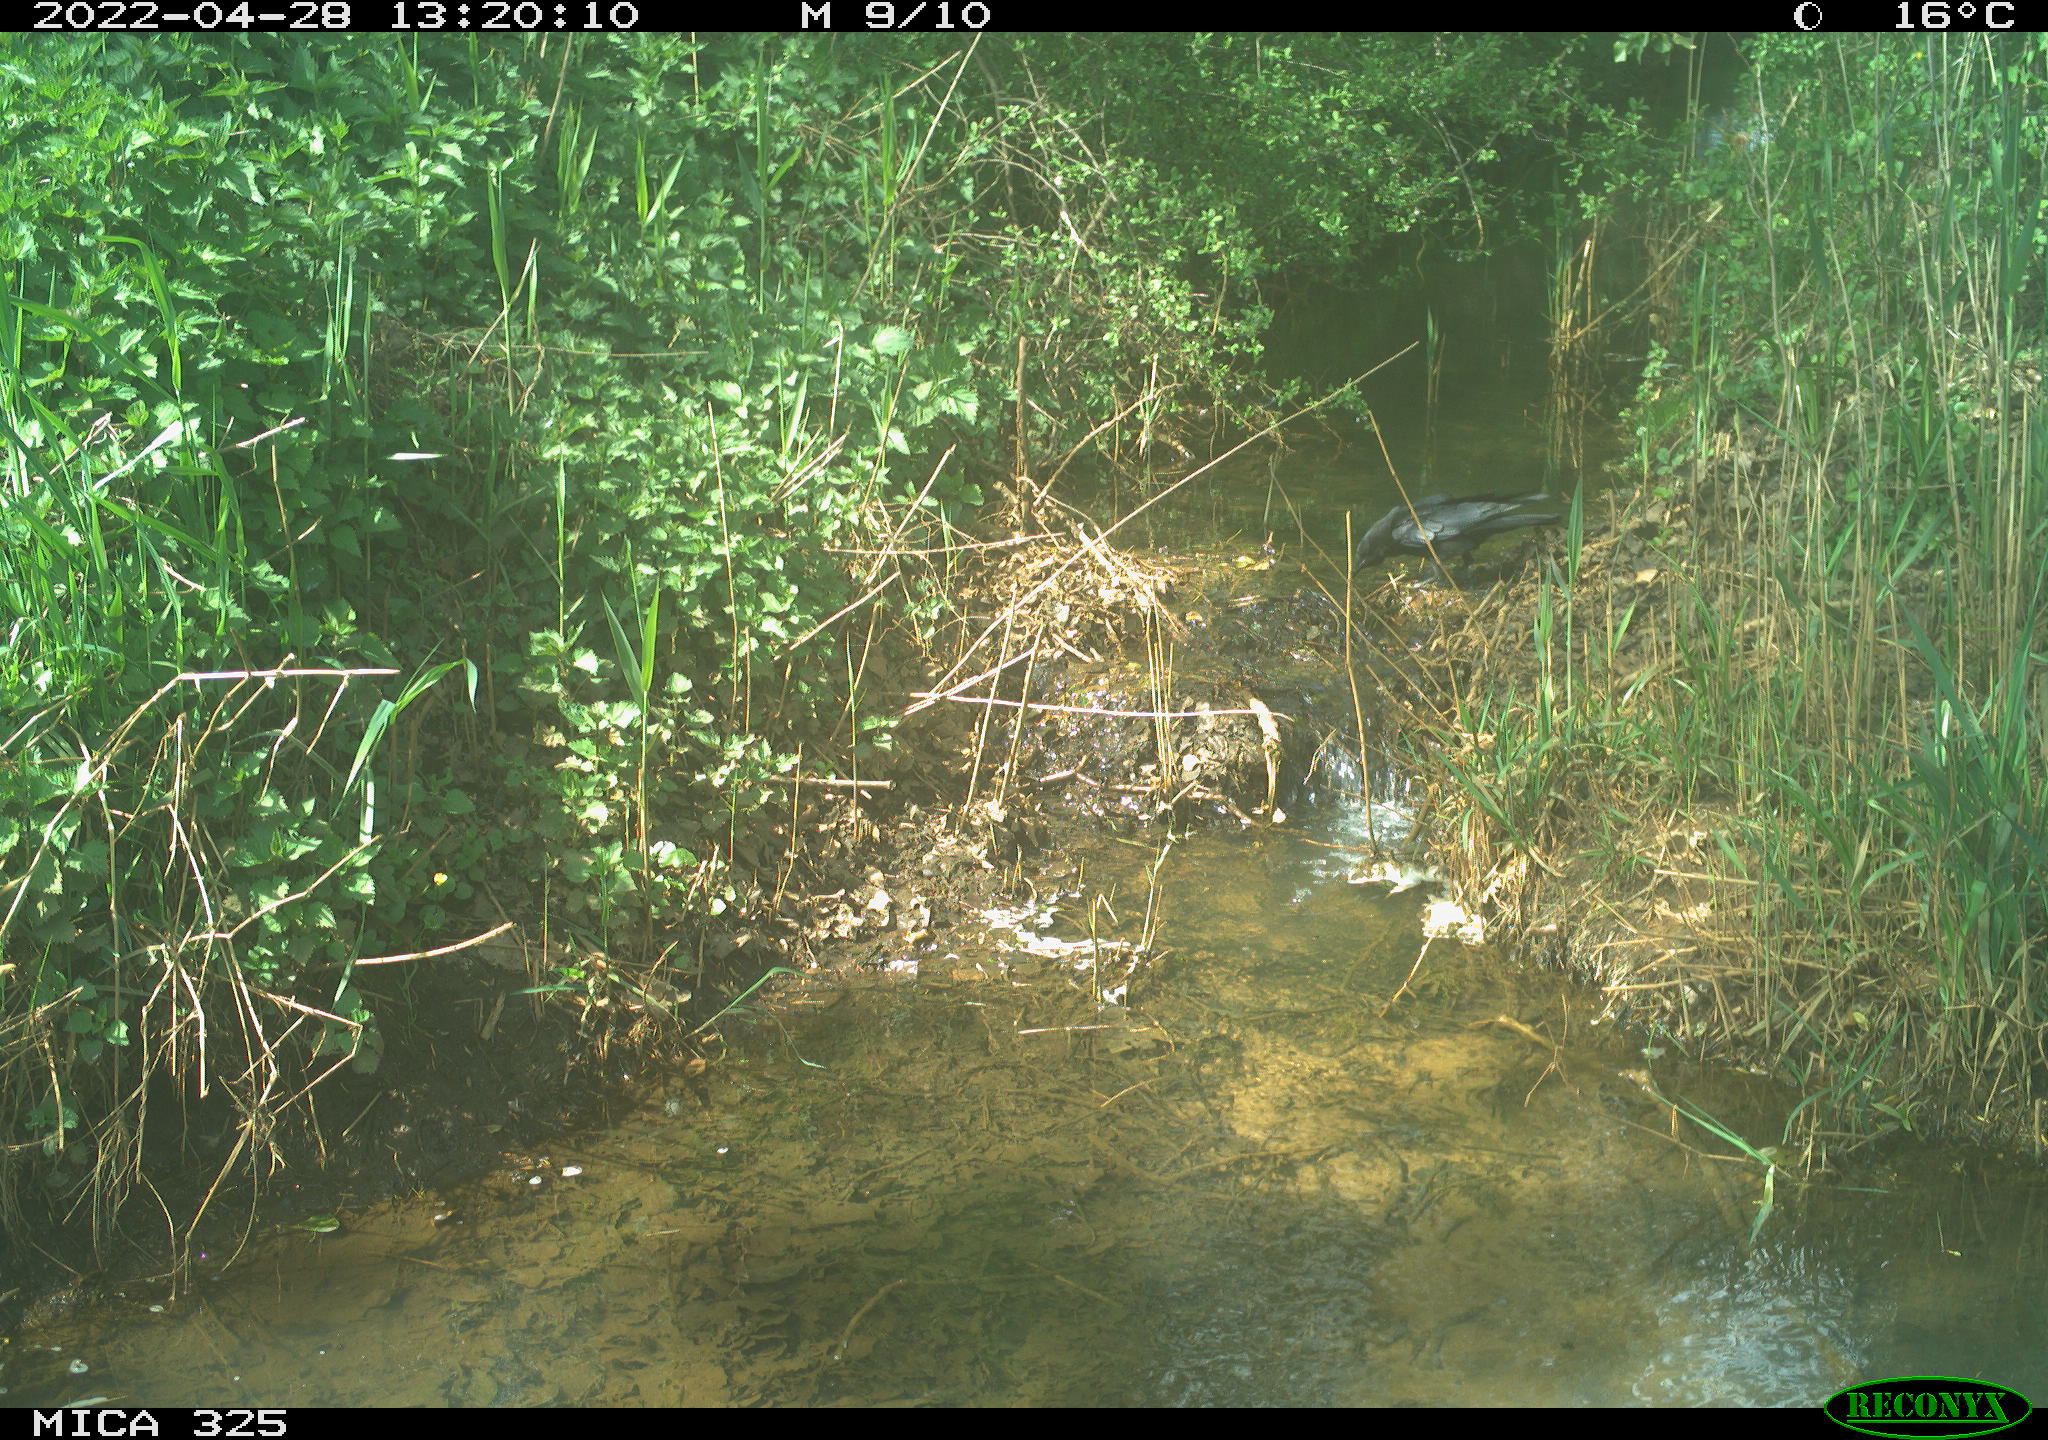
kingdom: Animalia
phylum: Chordata
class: Aves
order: Passeriformes
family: Corvidae
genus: Corvus
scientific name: Corvus corone
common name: Carrion crow
